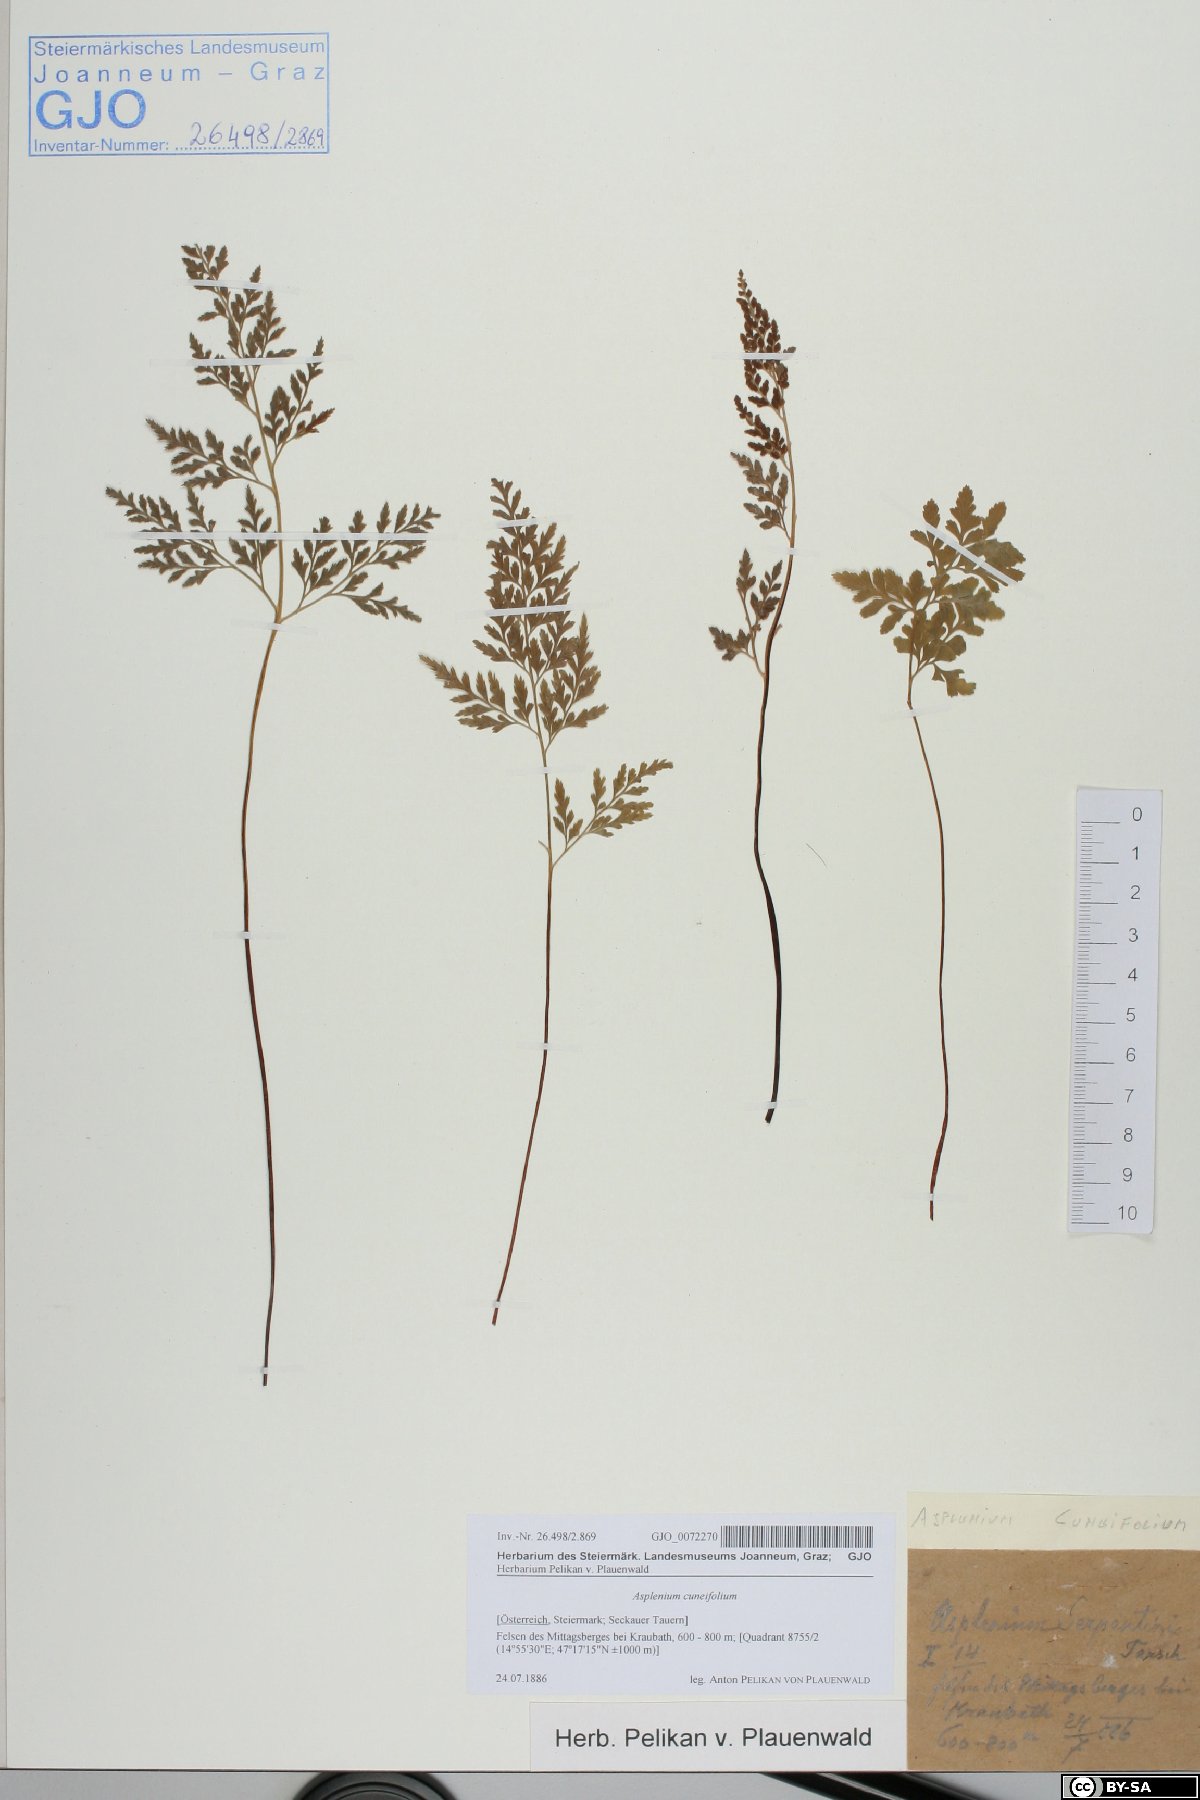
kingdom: Plantae
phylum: Tracheophyta
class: Polypodiopsida
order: Polypodiales
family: Aspleniaceae
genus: Asplenium
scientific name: Asplenium cuneifolium
